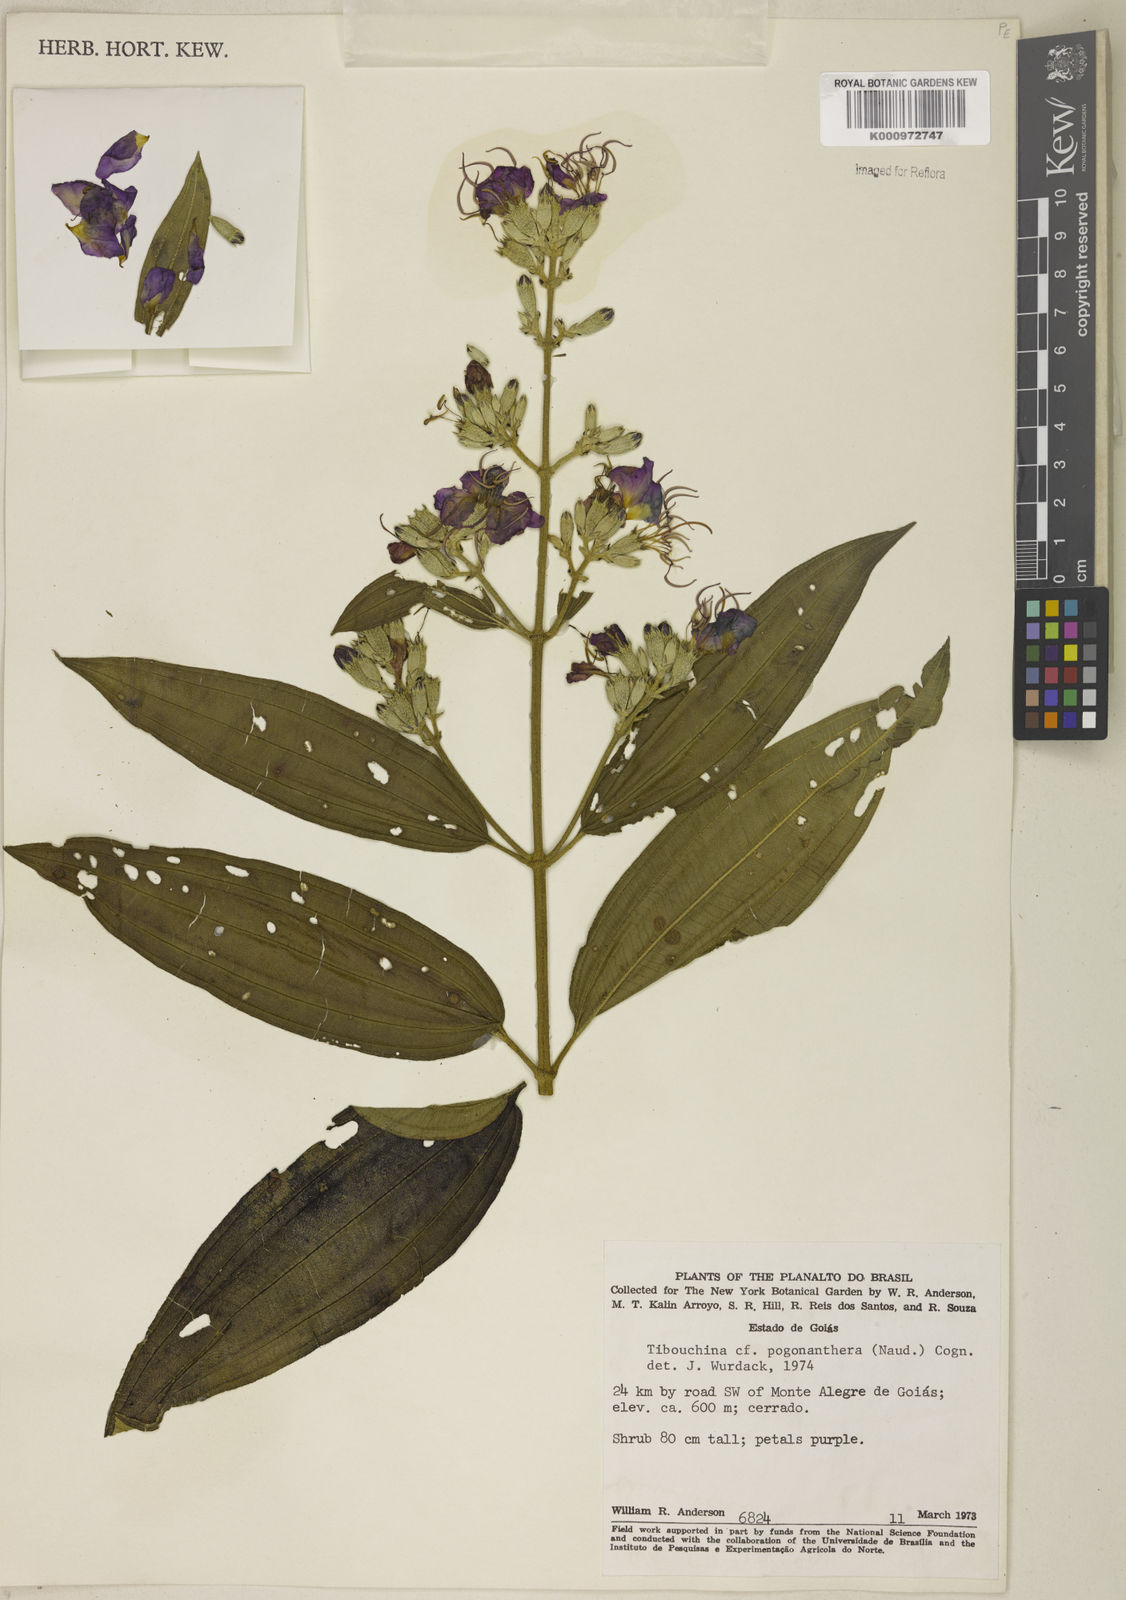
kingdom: Plantae
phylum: Tracheophyta
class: Magnoliopsida
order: Myrtales
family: Melastomataceae
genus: Pleroma
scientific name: Pleroma pogonantherum
